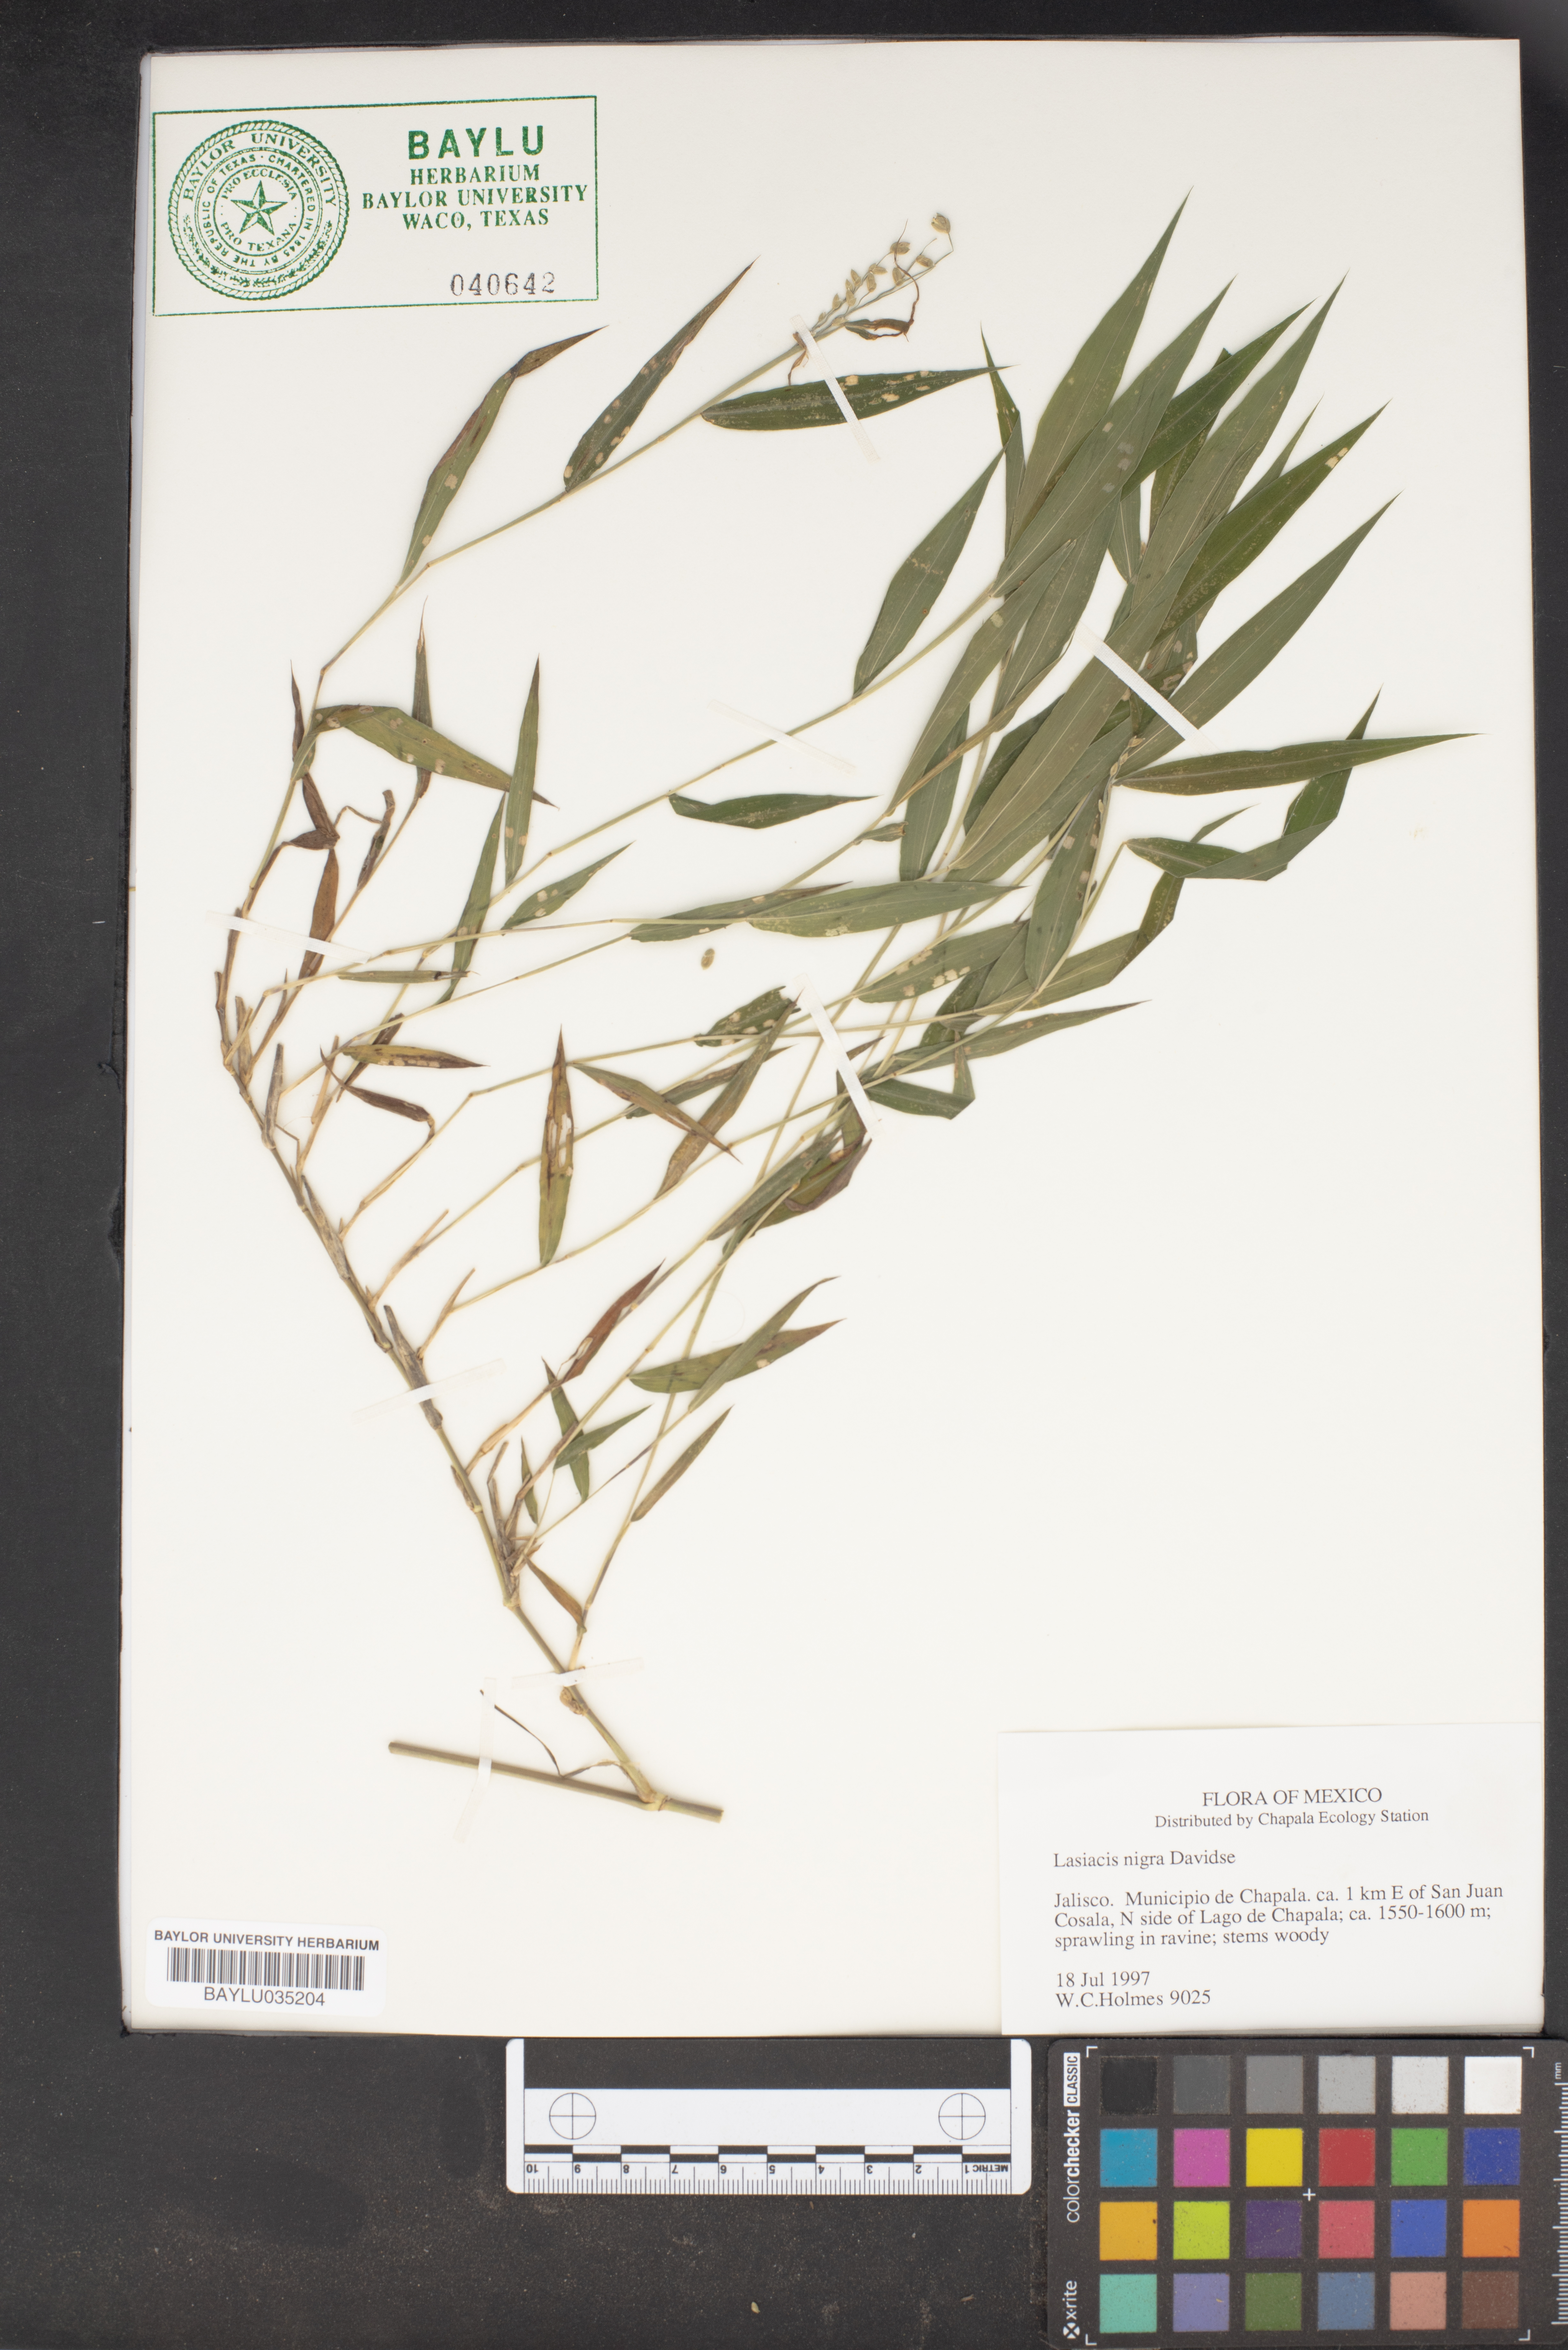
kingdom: Plantae
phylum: Tracheophyta
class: Liliopsida
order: Poales
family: Poaceae
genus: Lasiacis
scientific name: Lasiacis nigra
